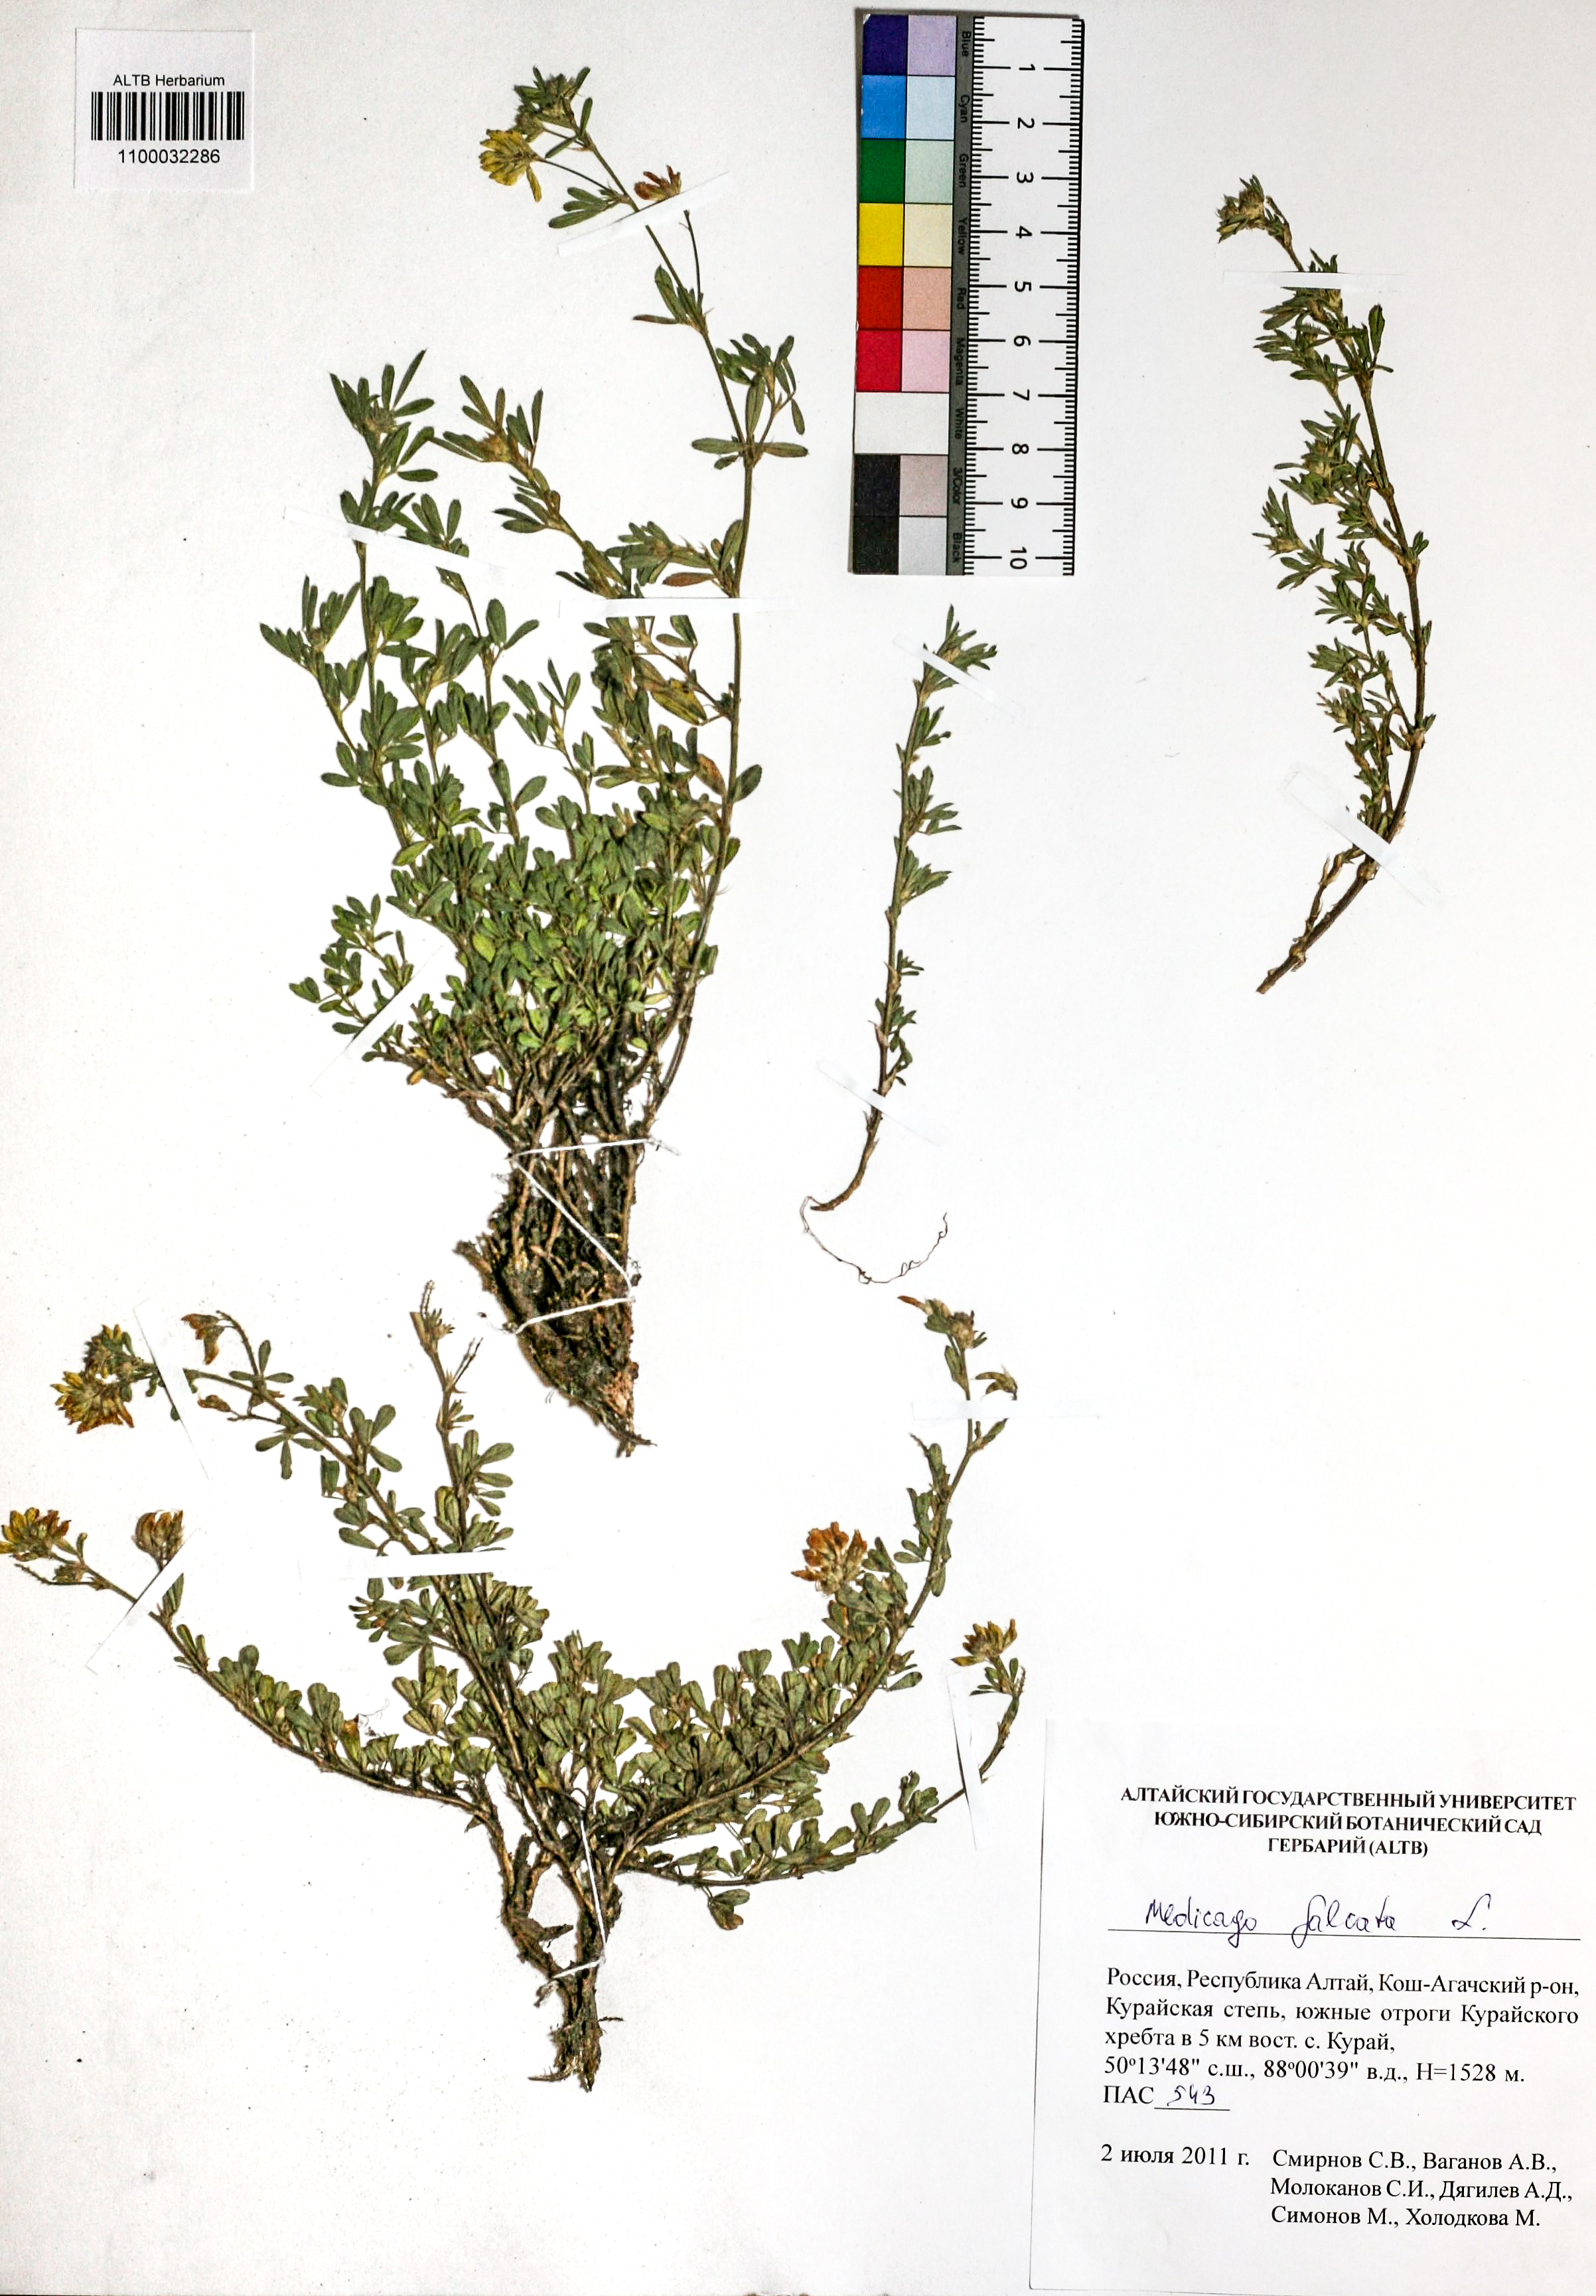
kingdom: Plantae
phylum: Tracheophyta
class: Magnoliopsida
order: Fabales
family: Fabaceae
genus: Medicago
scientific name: Medicago falcata
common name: Sickle medick
